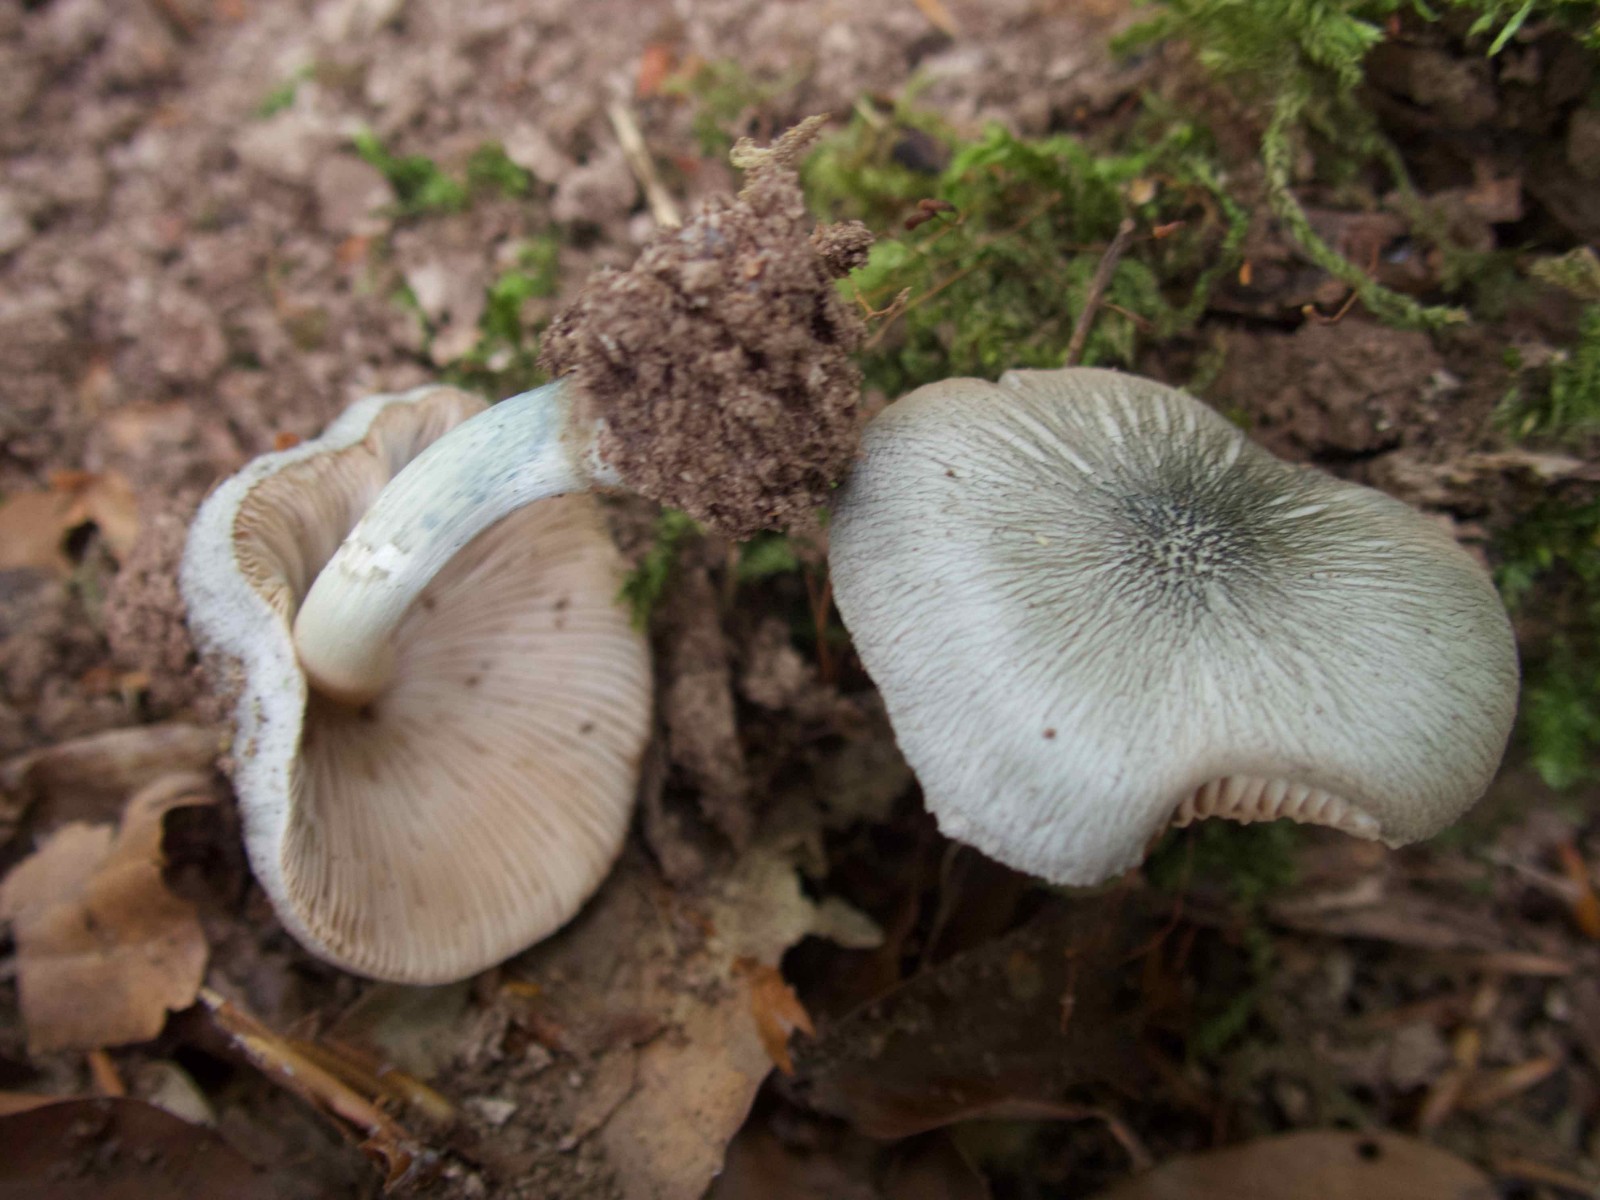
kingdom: Fungi
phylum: Basidiomycota
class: Agaricomycetes
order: Agaricales
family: Pluteaceae
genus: Pluteus
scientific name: Pluteus salicinus
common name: stiv skærmhat
